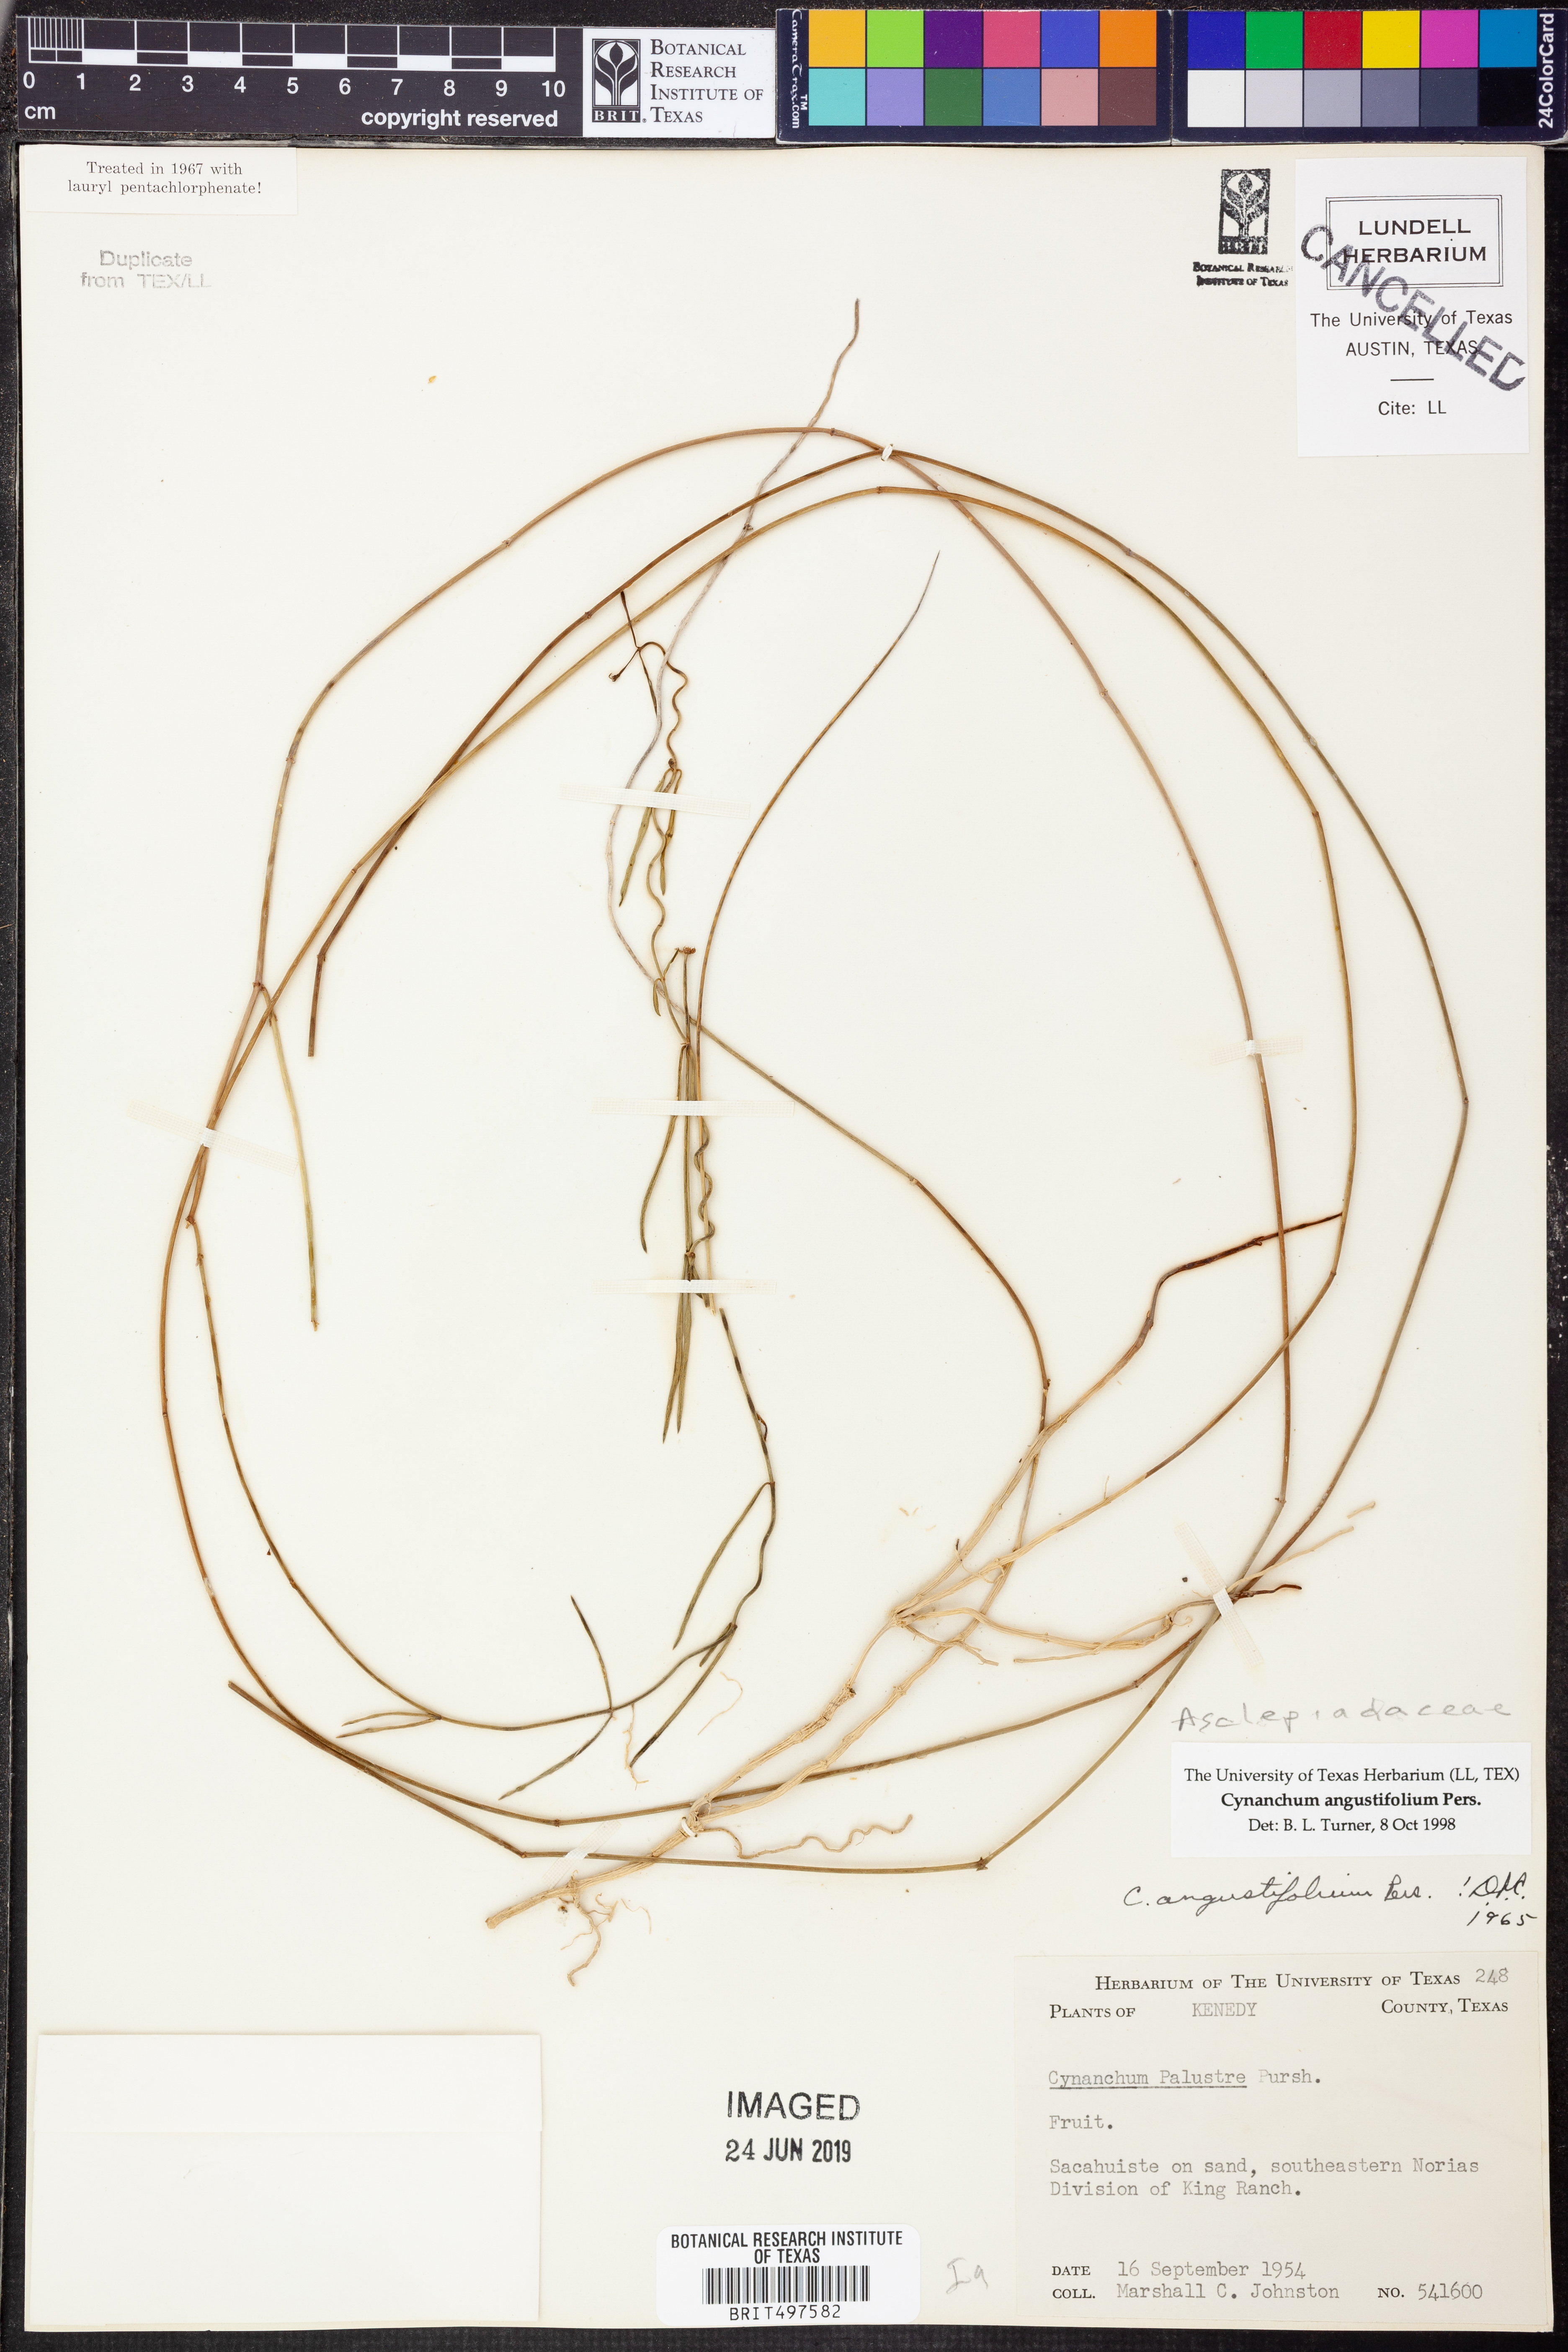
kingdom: Plantae
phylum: Tracheophyta
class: Magnoliopsida
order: Gentianales
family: Apocynaceae
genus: Pattalias
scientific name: Pattalias palustris
